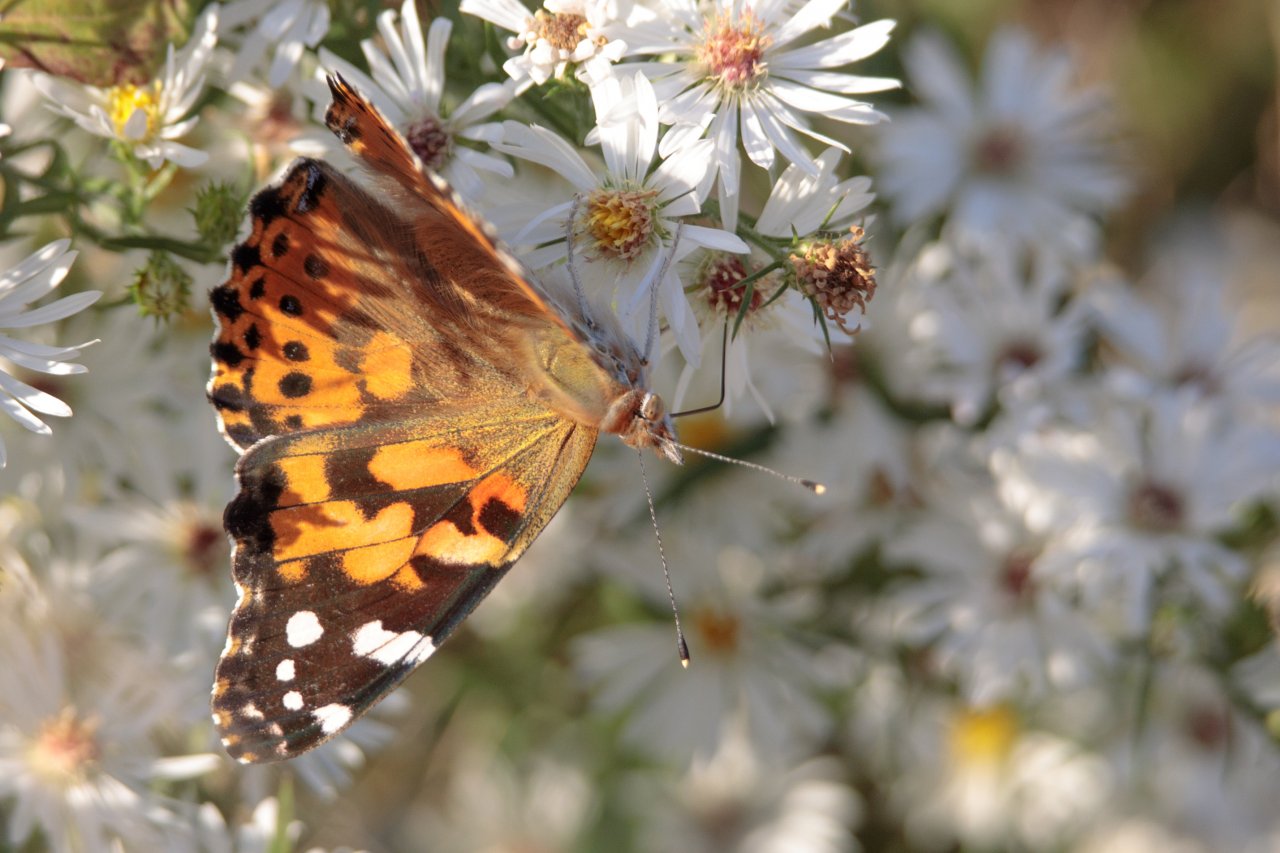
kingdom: Animalia
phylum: Arthropoda
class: Insecta
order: Lepidoptera
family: Nymphalidae
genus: Vanessa
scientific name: Vanessa cardui
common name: Painted Lady
